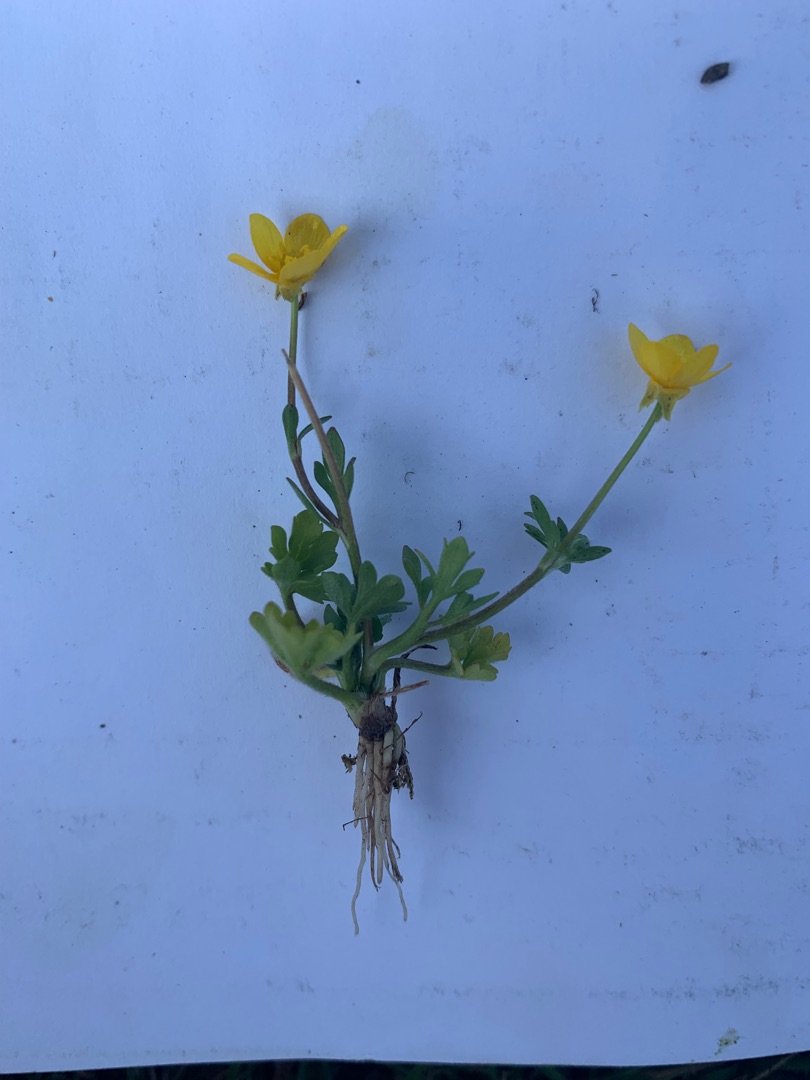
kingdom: Plantae
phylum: Tracheophyta
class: Magnoliopsida
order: Ranunculales
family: Ranunculaceae
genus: Ranunculus
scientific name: Ranunculus sardous
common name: Stivhåret ranunkel
